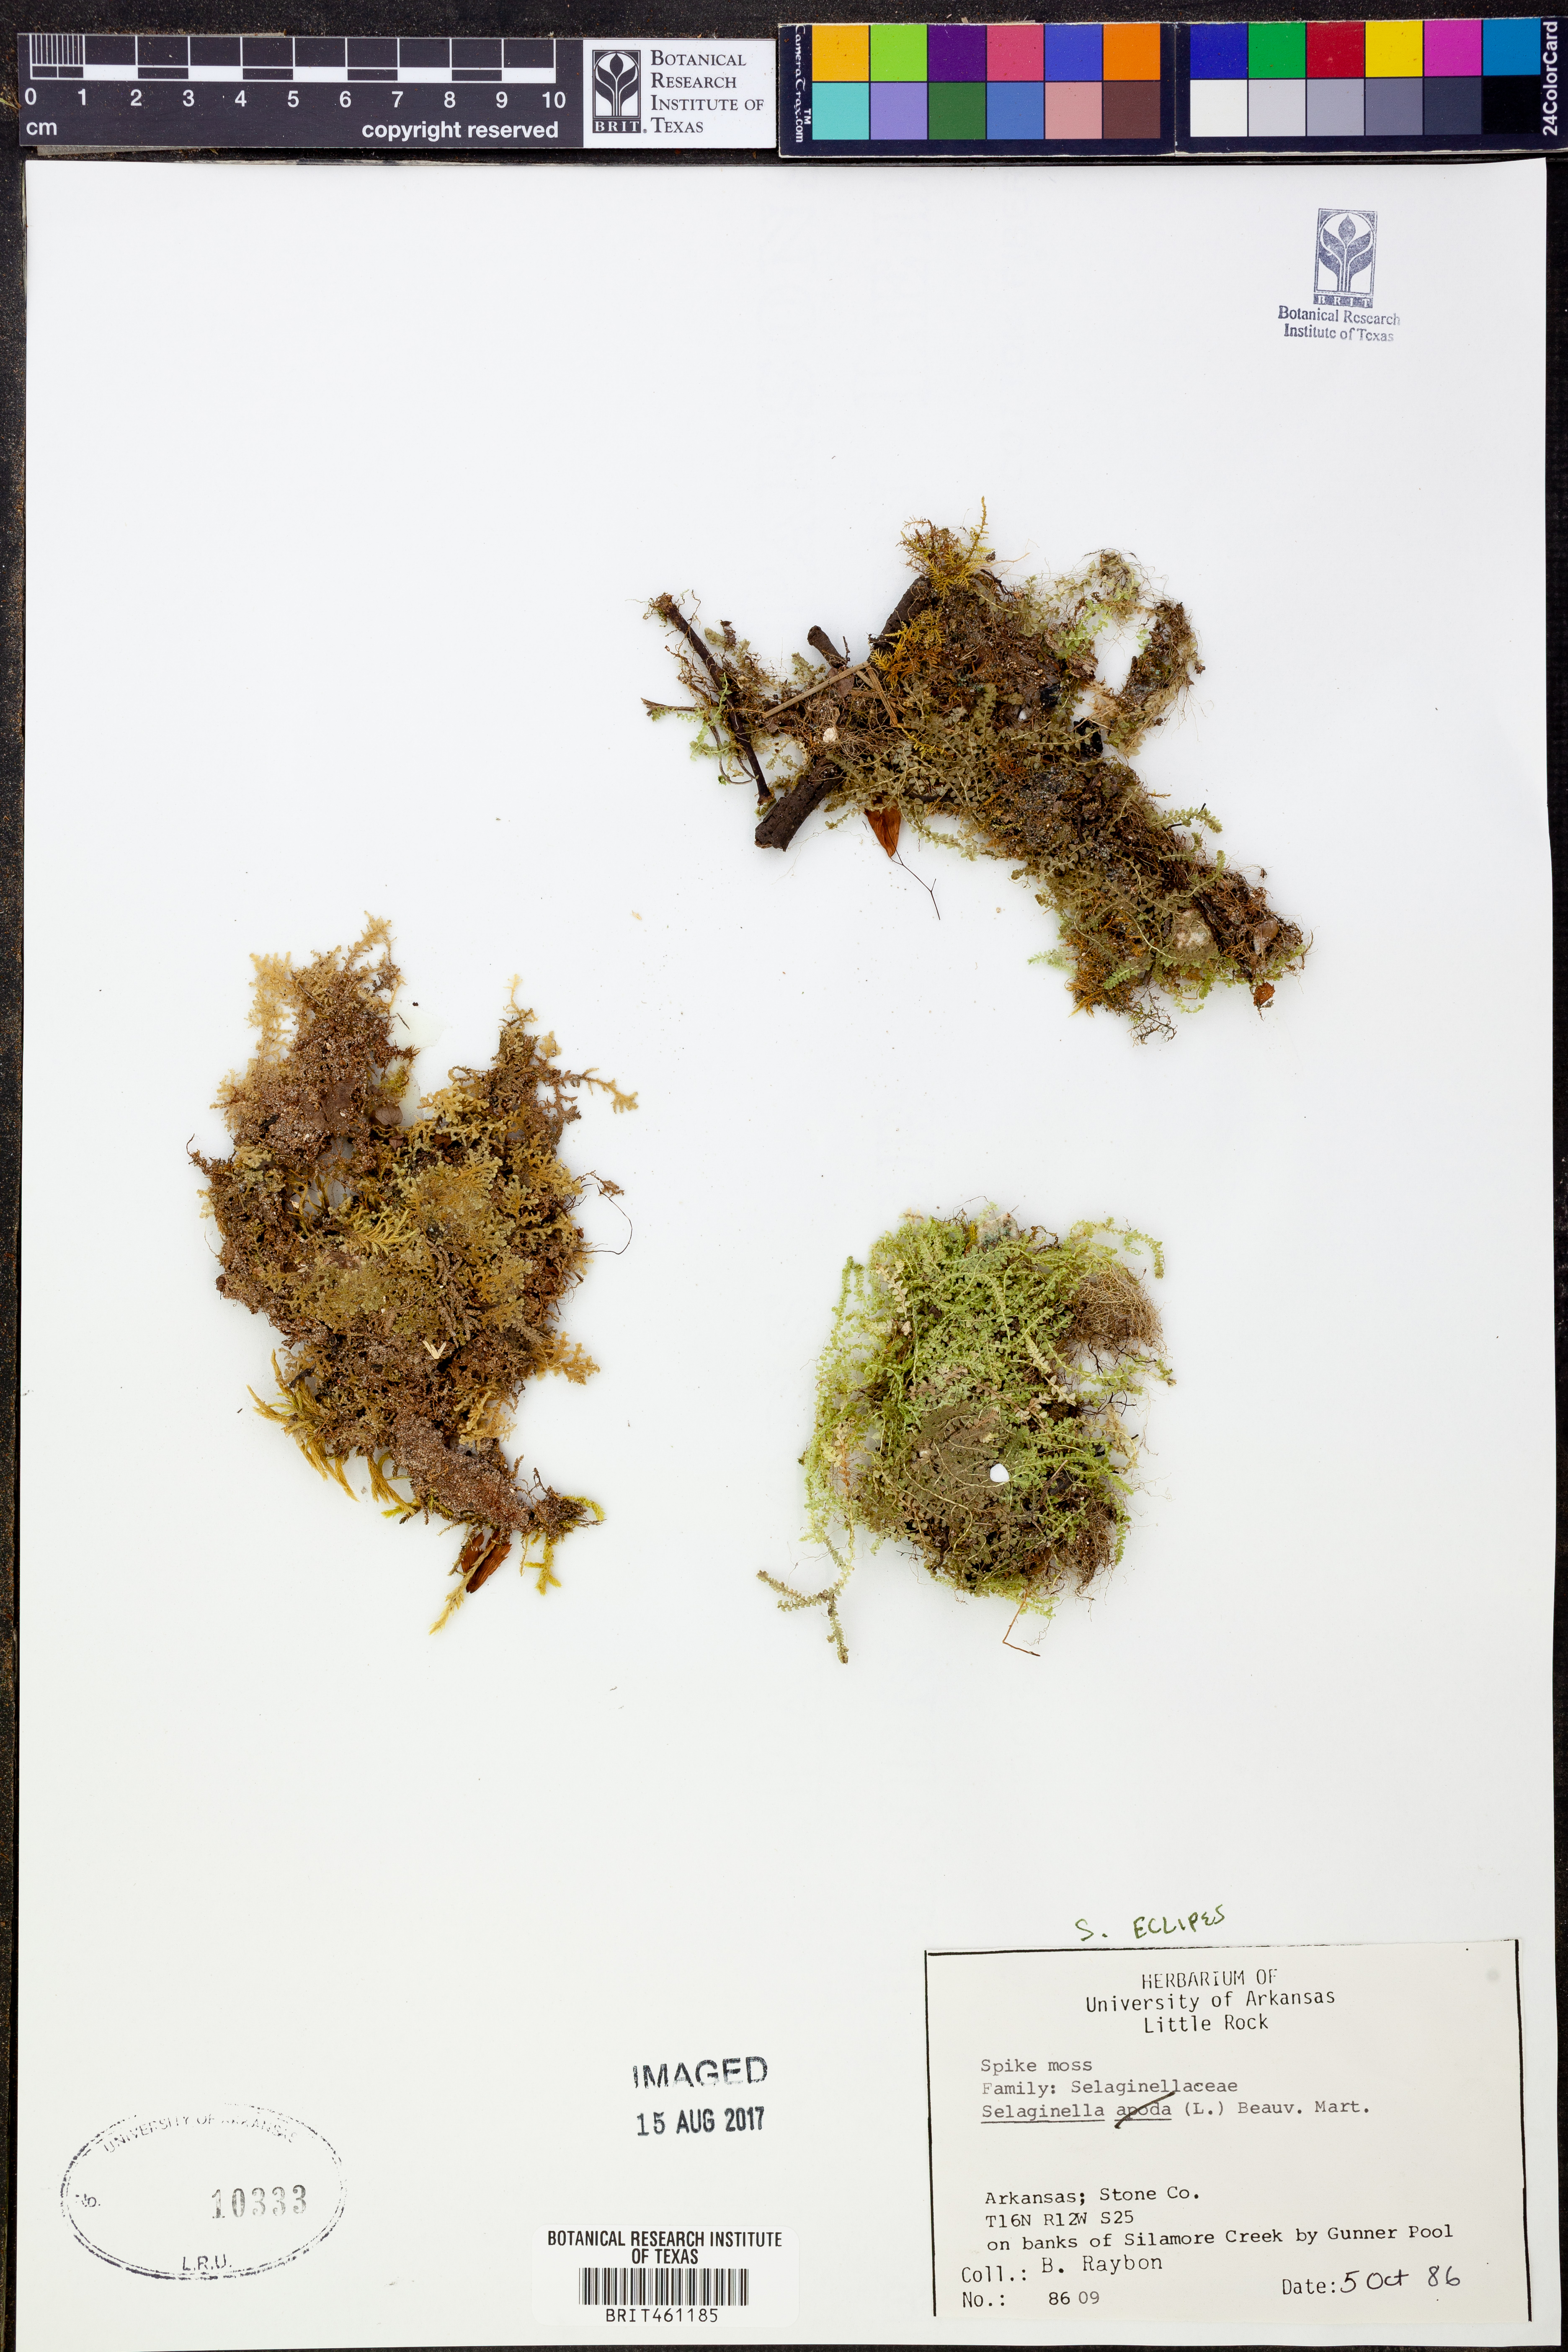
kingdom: Plantae
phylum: Tracheophyta
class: Lycopodiopsida
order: Selaginellales
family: Selaginellaceae
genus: Selaginella
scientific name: Selaginella
